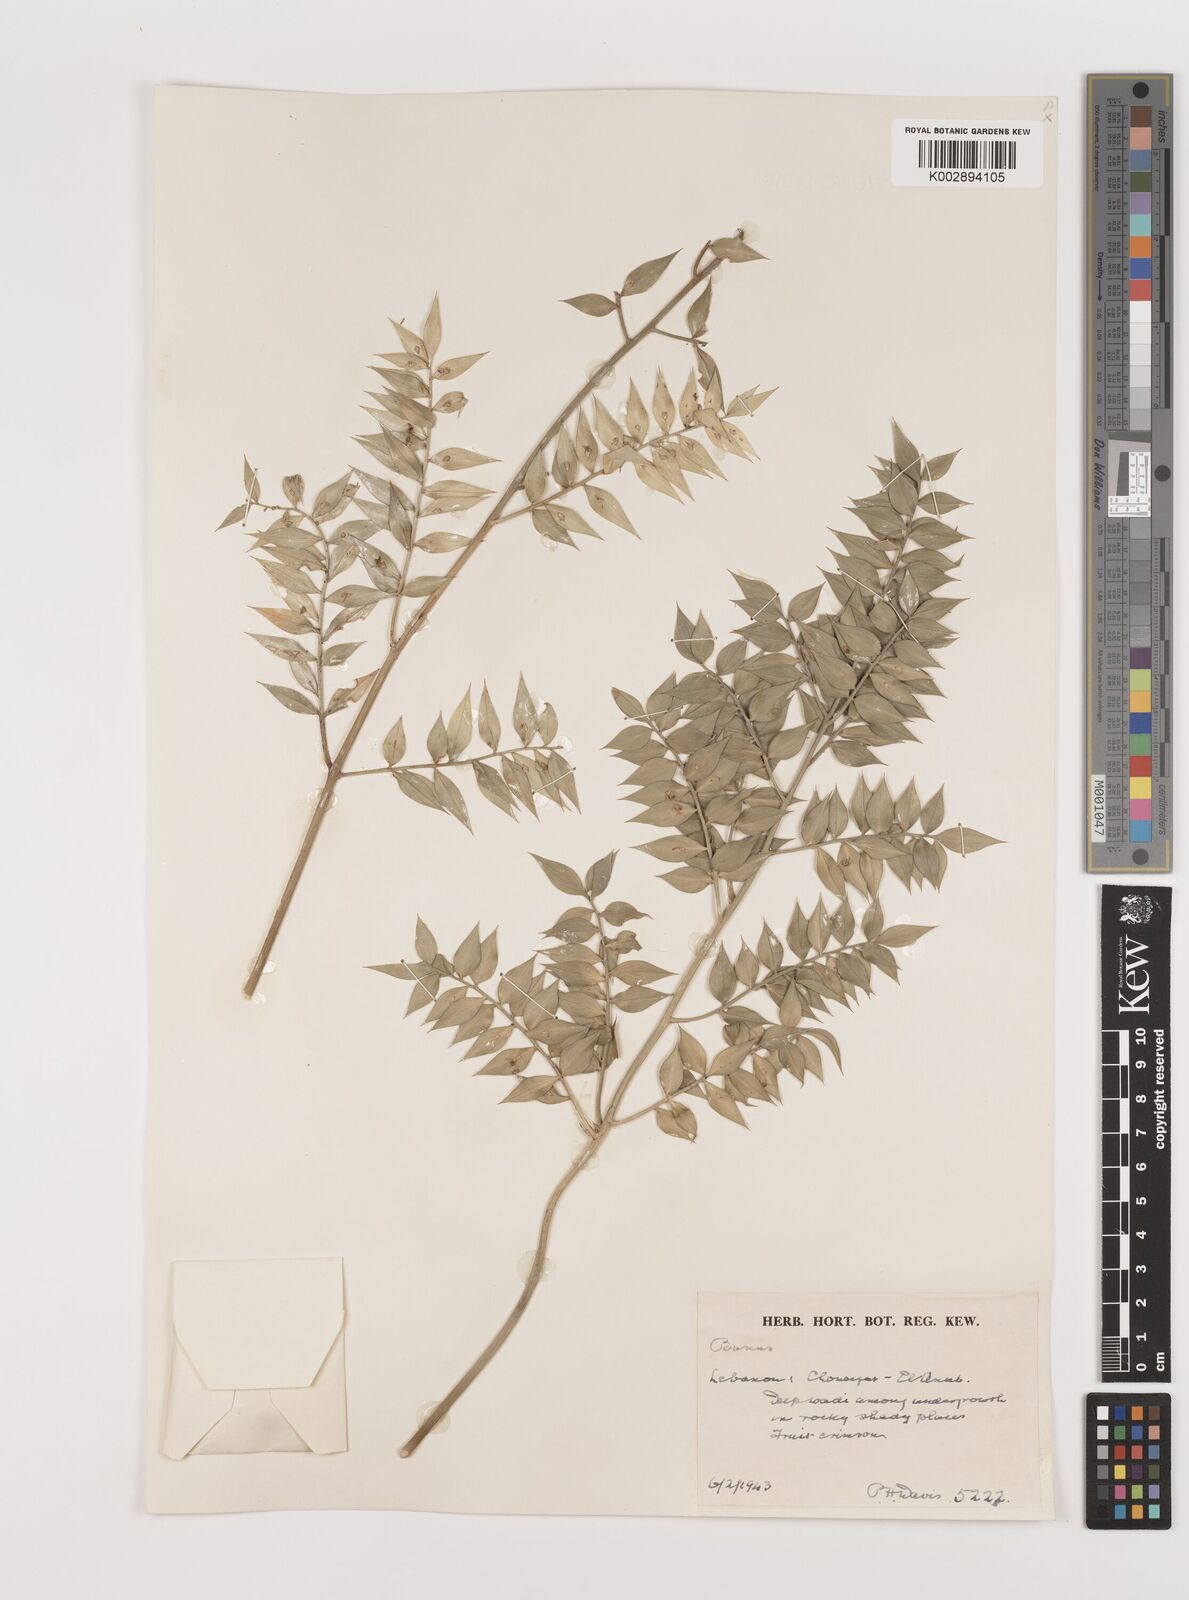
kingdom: Plantae
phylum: Tracheophyta
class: Liliopsida
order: Asparagales
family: Asparagaceae
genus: Ruscus
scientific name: Ruscus aculeatus
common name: Butcher's-broom
